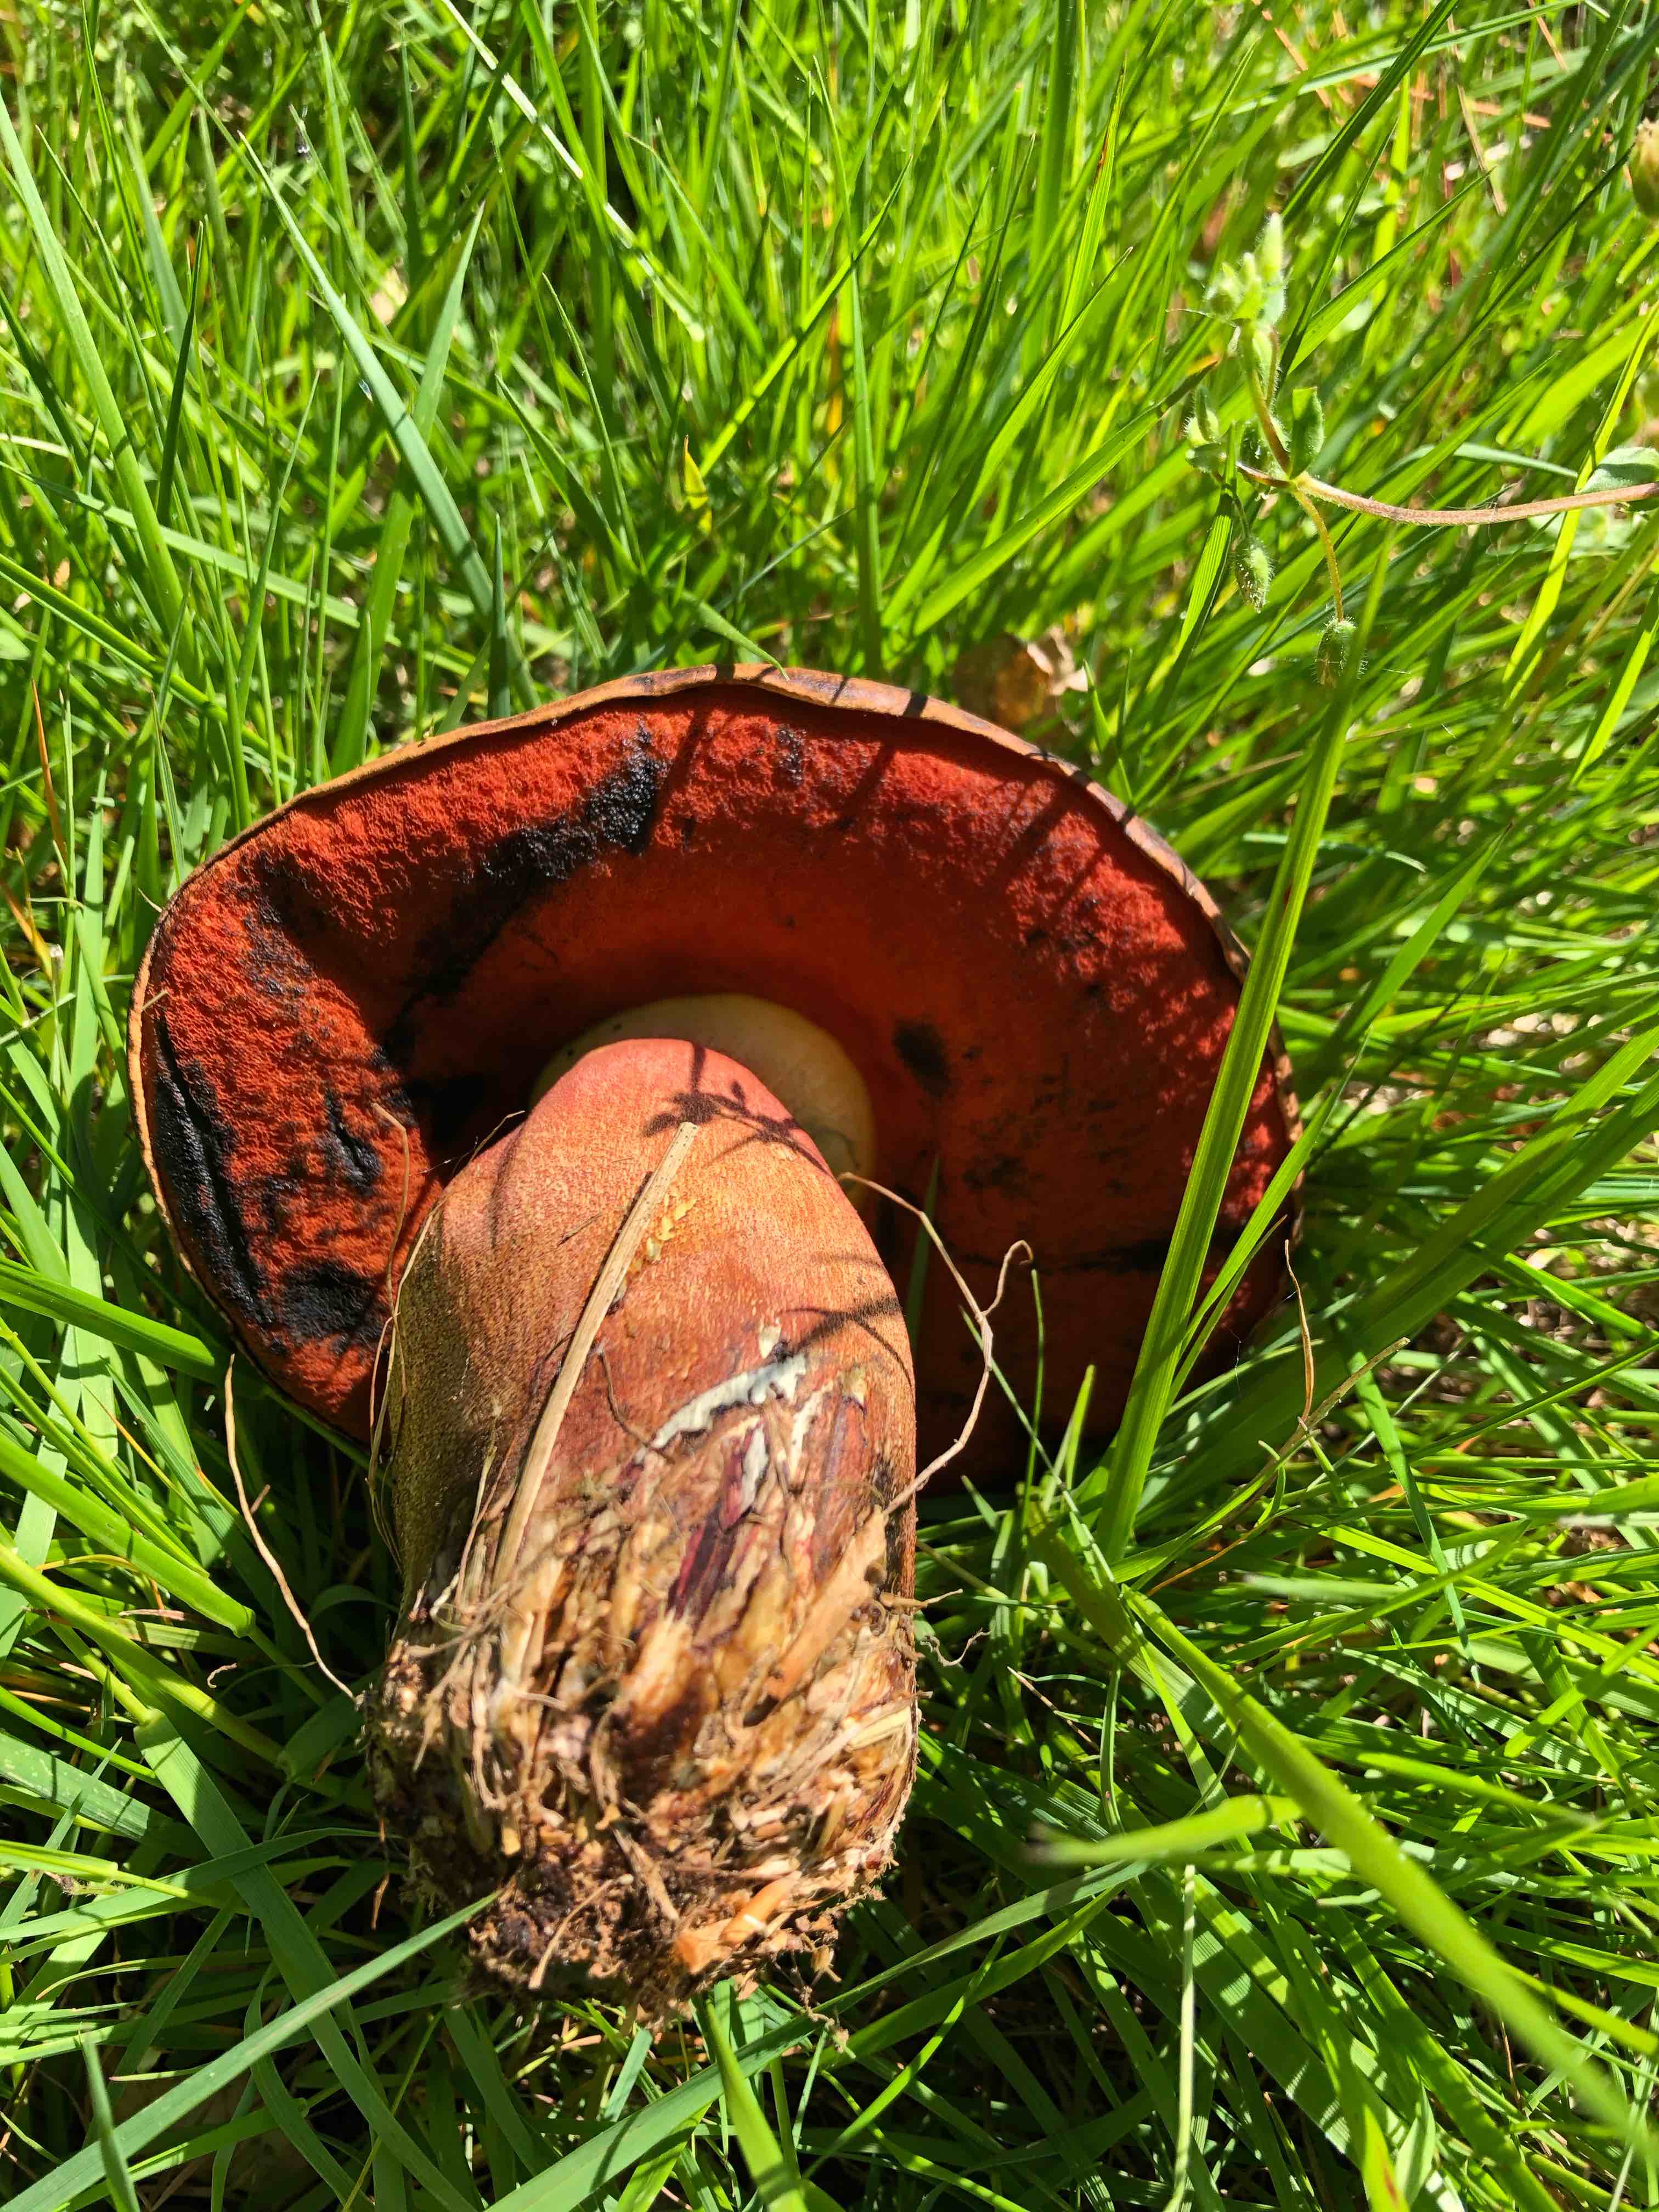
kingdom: Fungi
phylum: Basidiomycota
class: Agaricomycetes
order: Boletales
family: Boletaceae
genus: Neoboletus
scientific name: Neoboletus erythropus
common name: punktstokket indigorørhat
